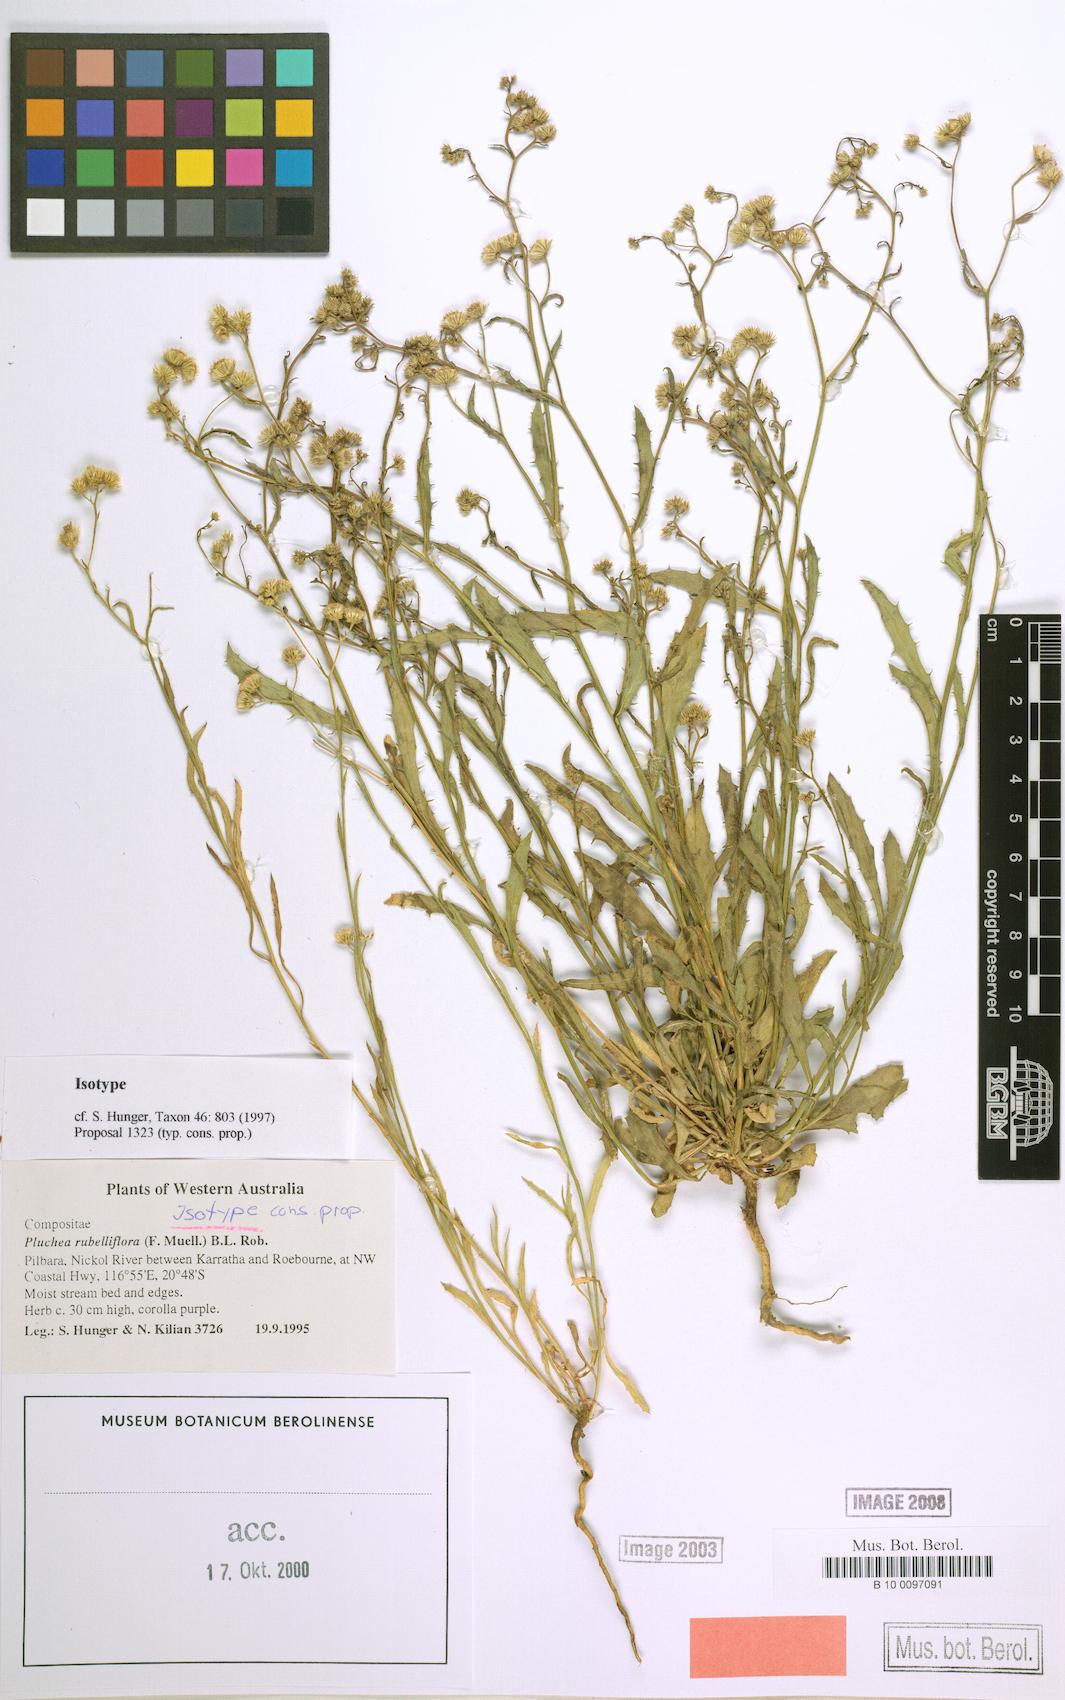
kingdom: Plantae
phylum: Tracheophyta
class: Magnoliopsida
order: Asterales
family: Asteraceae
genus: Pluchea
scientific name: Pluchea rubelliflora
